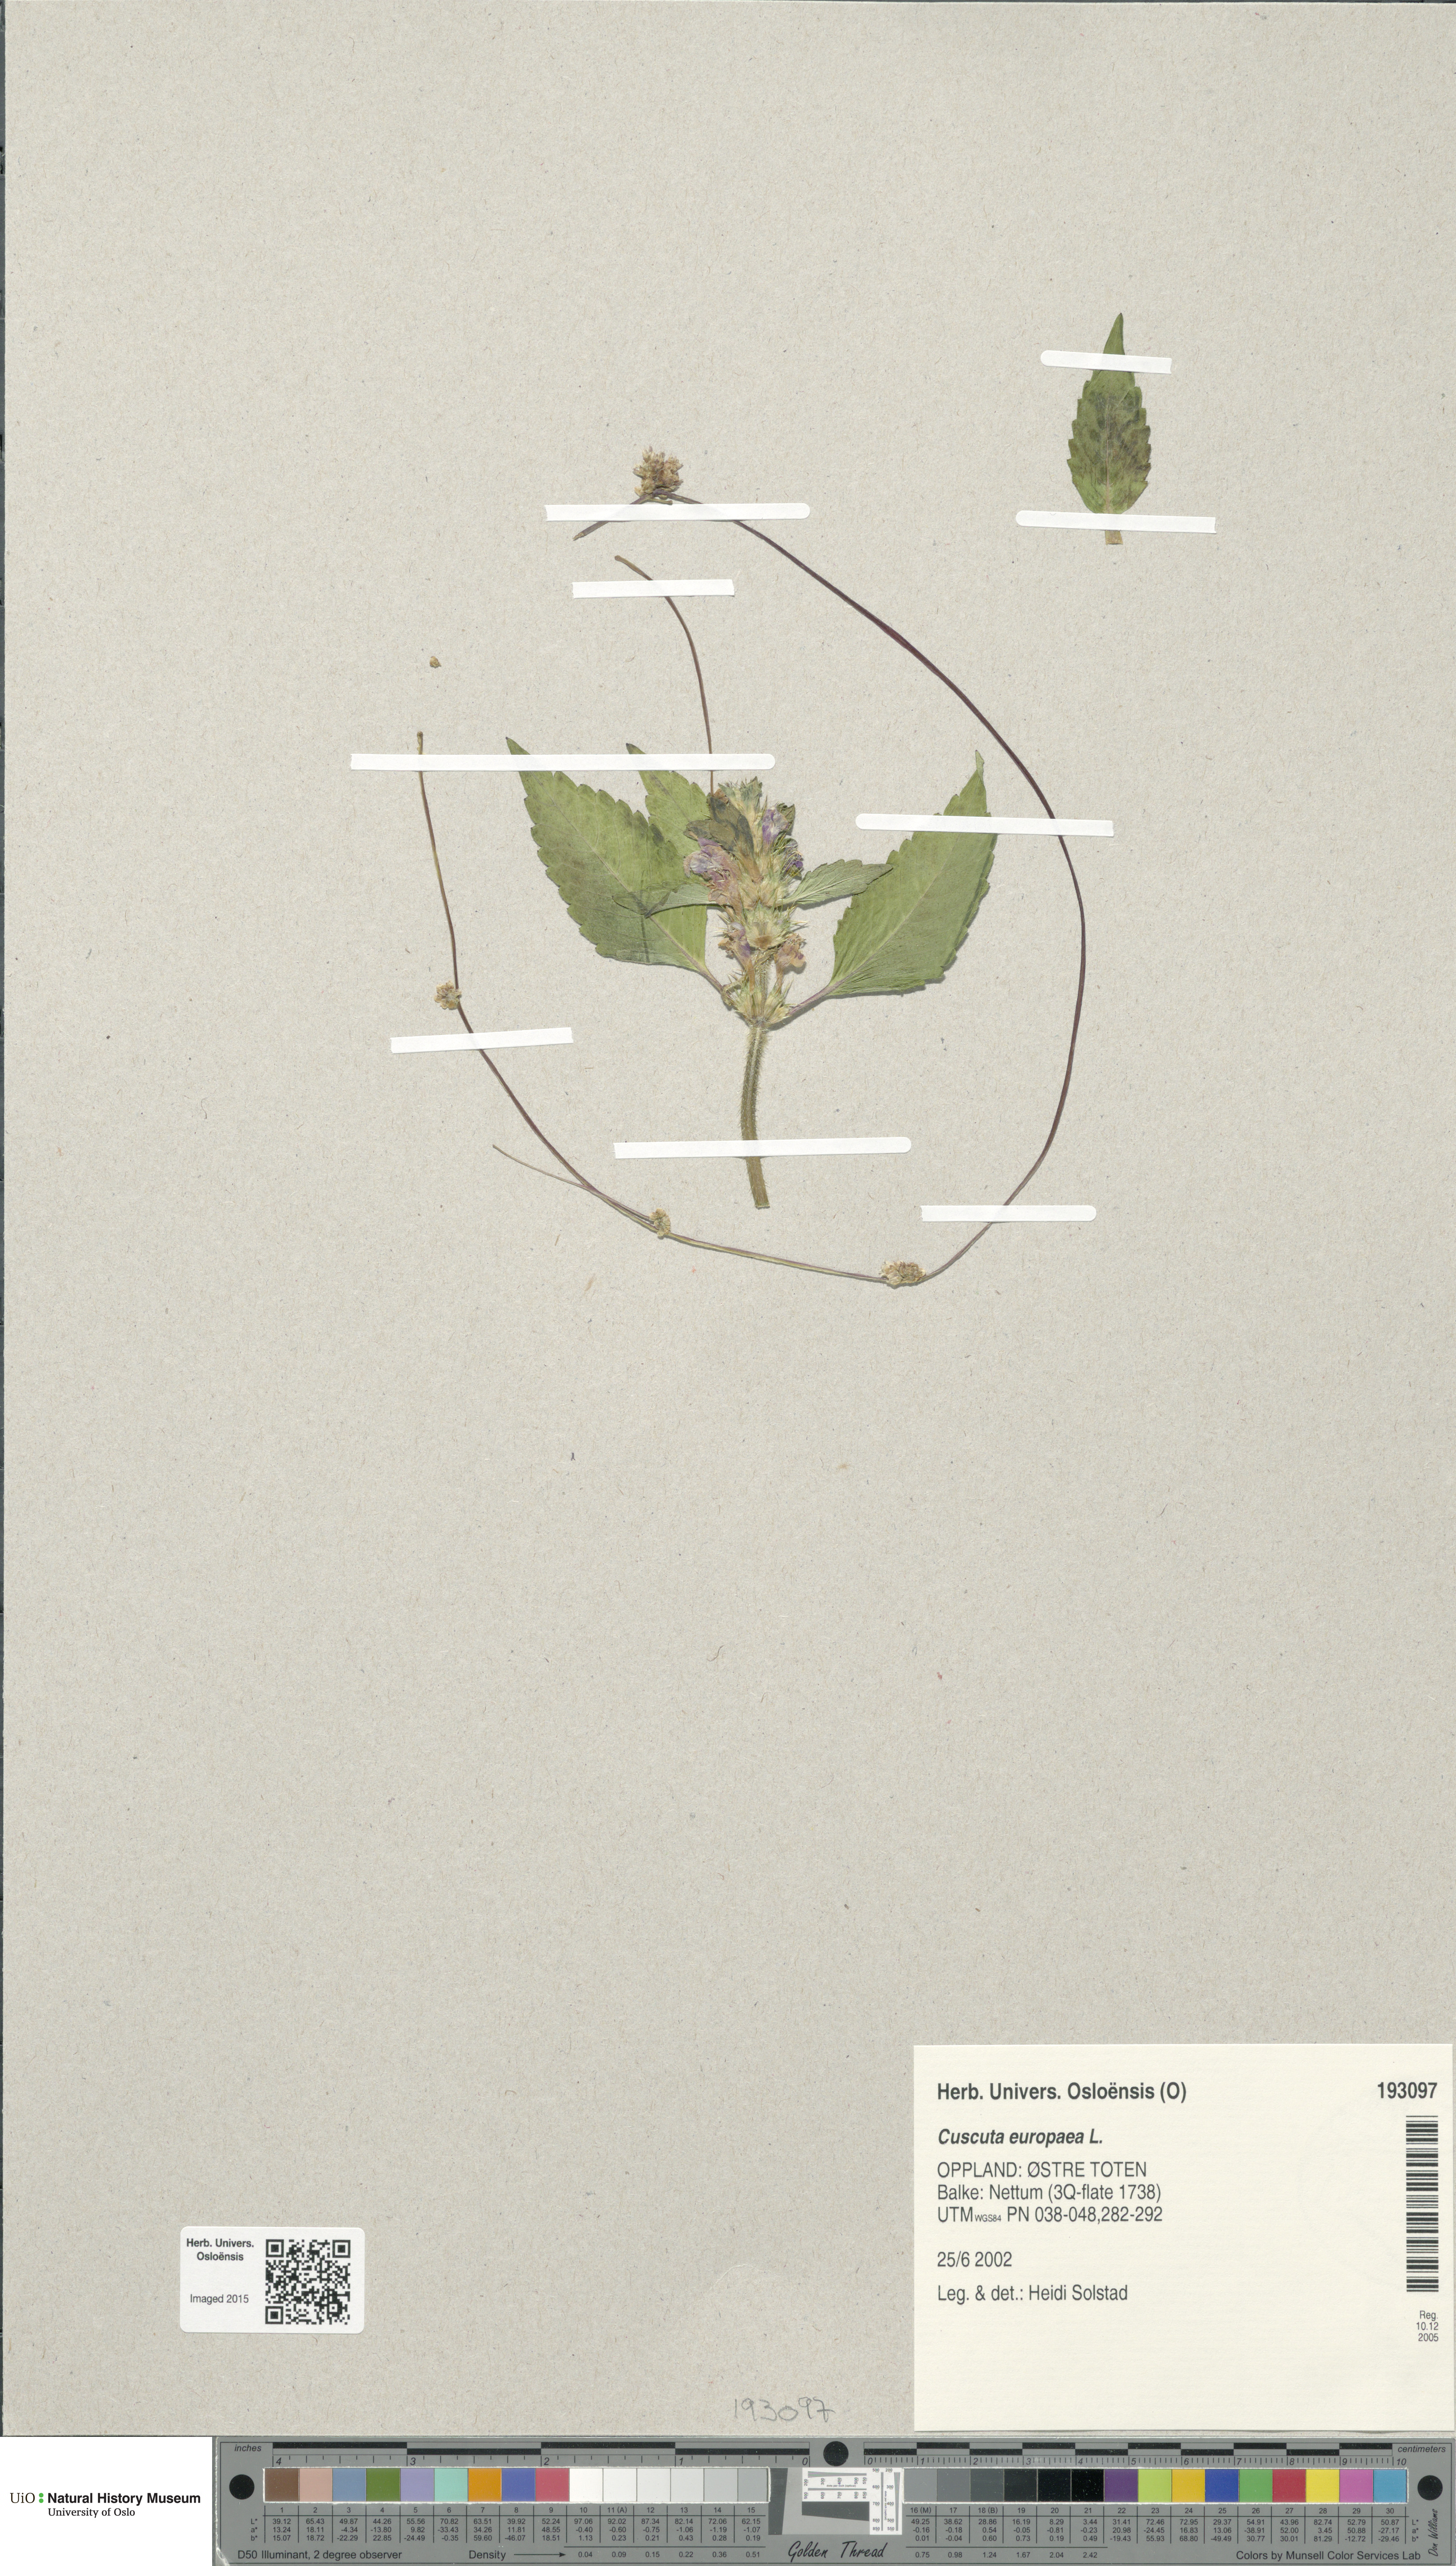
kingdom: Plantae
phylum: Tracheophyta
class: Magnoliopsida
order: Solanales
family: Convolvulaceae
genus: Cuscuta
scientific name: Cuscuta europaea
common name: Greater dodder
